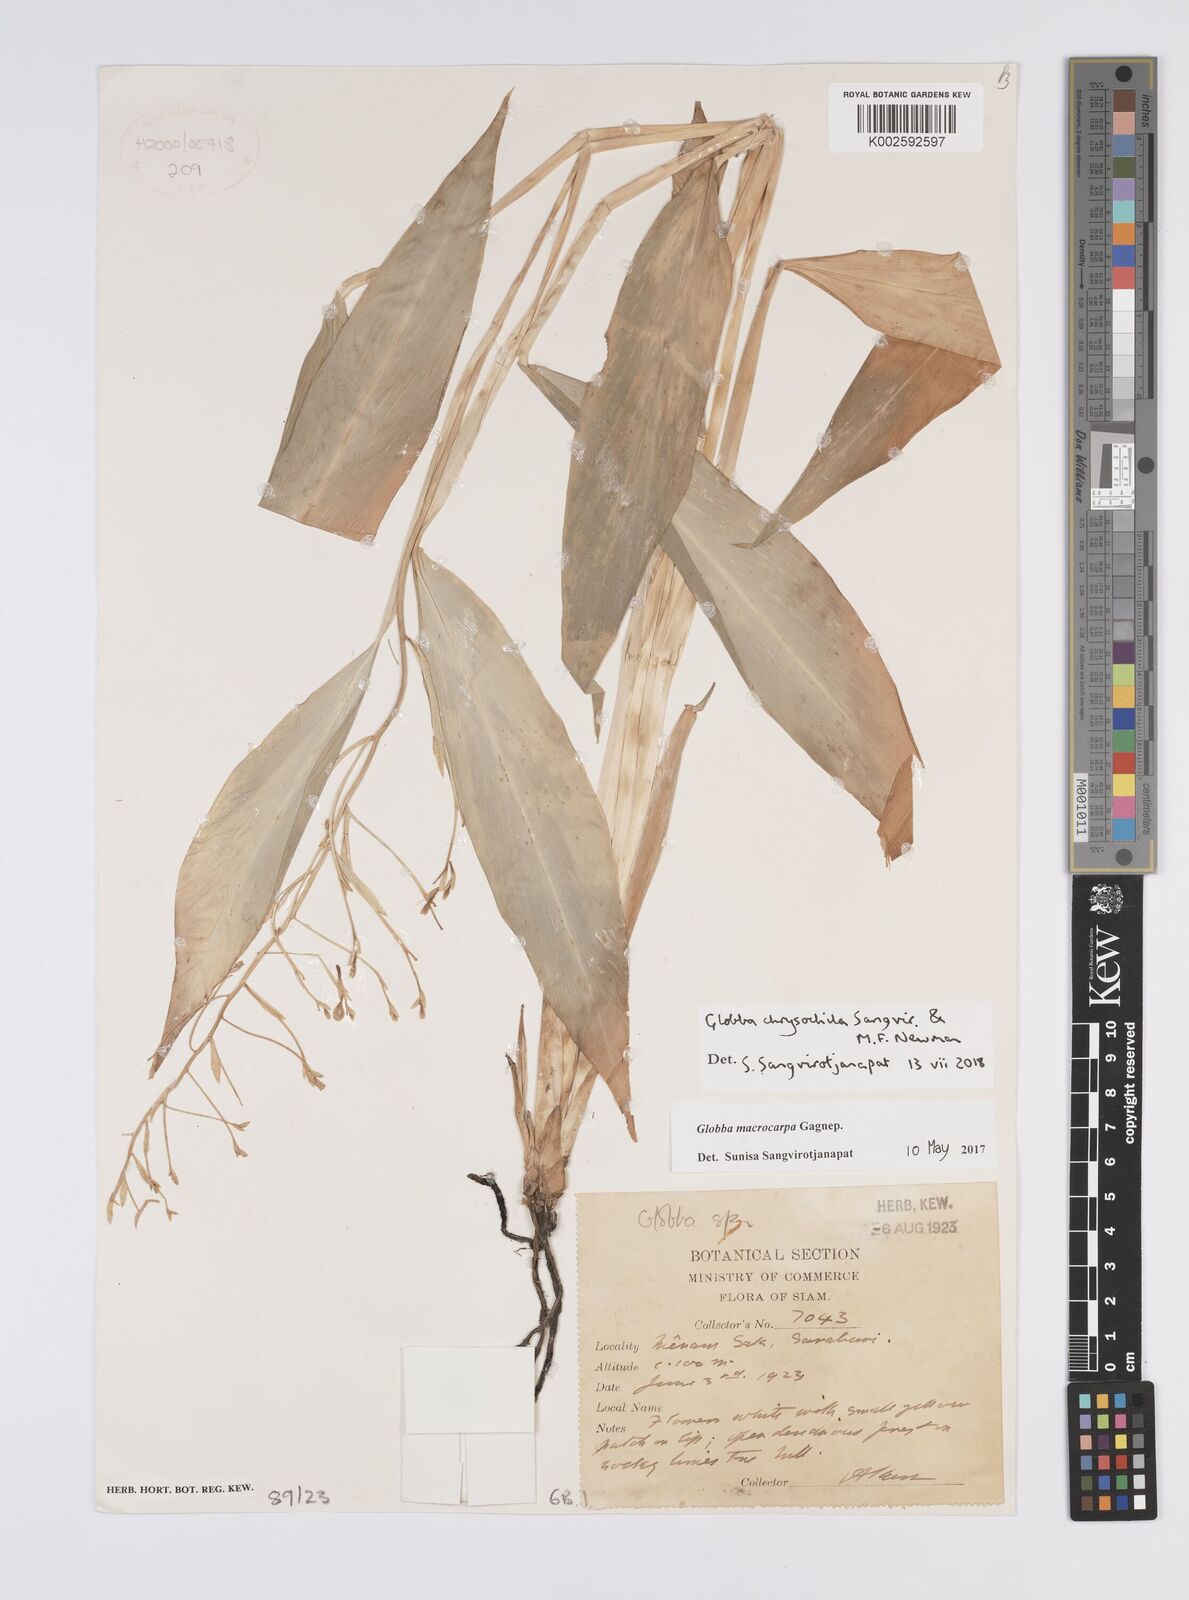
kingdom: Plantae
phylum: Tracheophyta
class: Liliopsida
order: Zingiberales
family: Zingiberaceae
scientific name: Zingiberaceae
